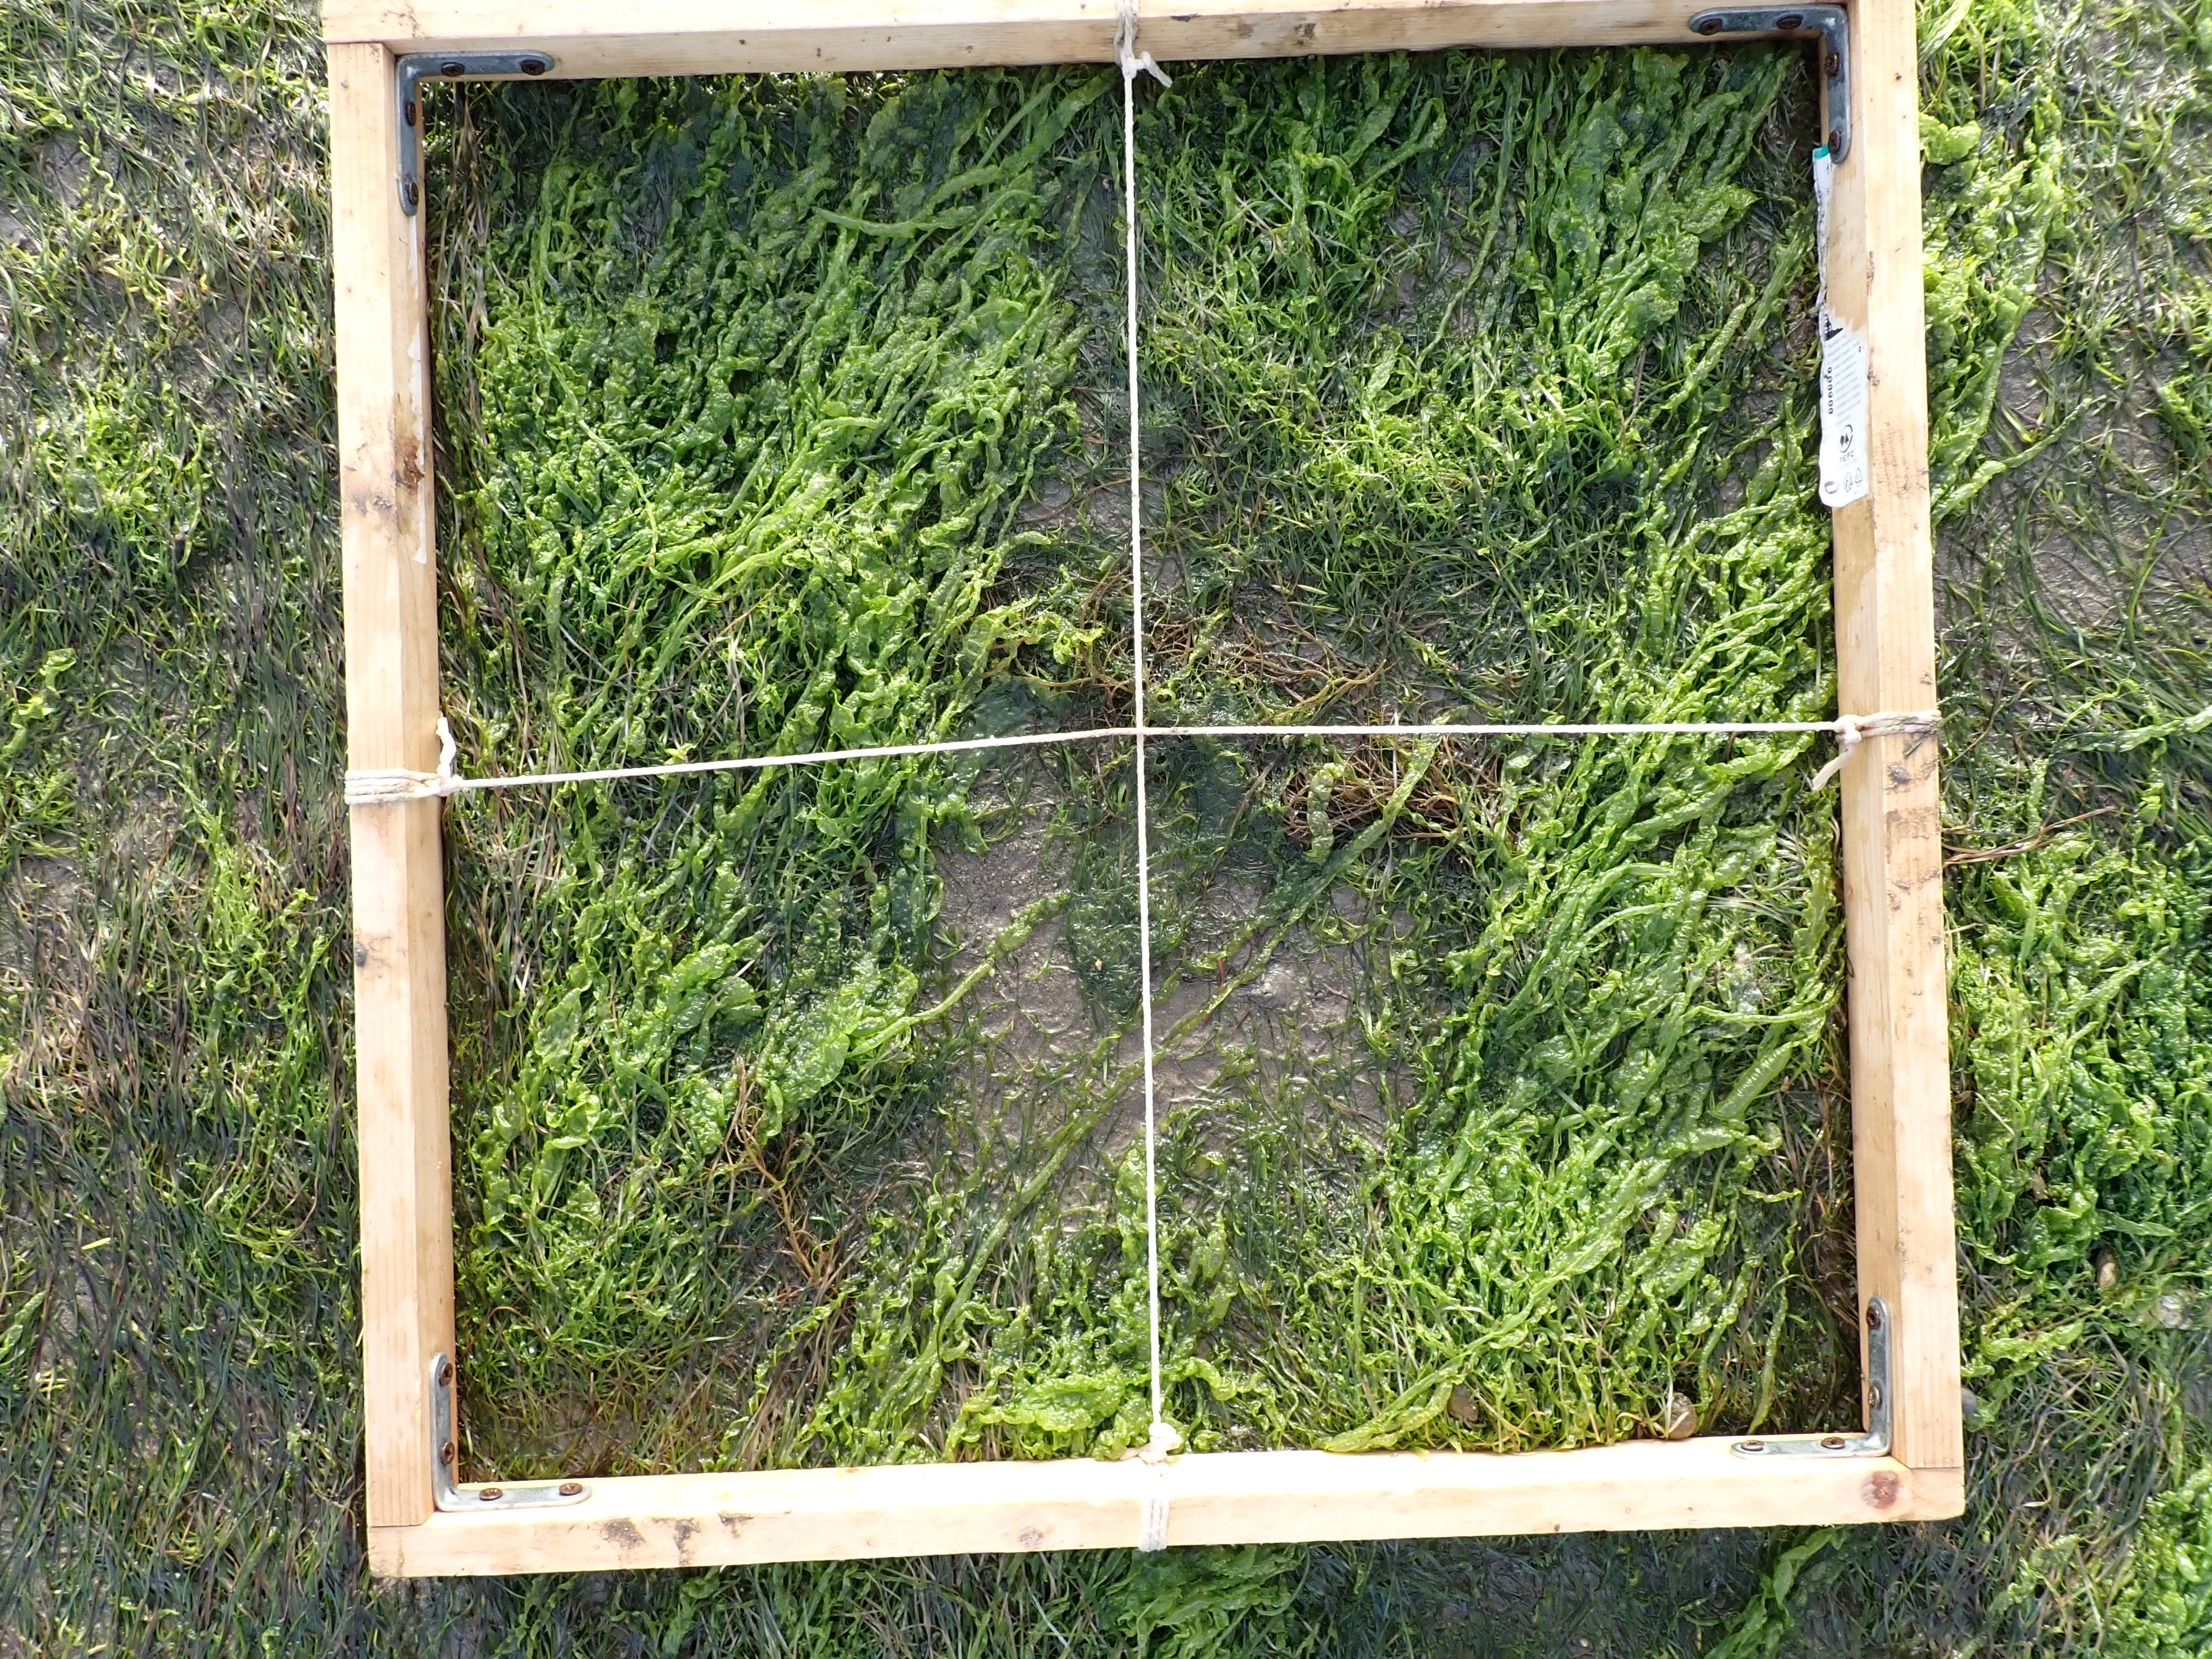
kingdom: Plantae
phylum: Tracheophyta
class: Liliopsida
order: Alismatales
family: Zosteraceae
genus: Zostera
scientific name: Zostera noltii
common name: Dwarf eelgrass
